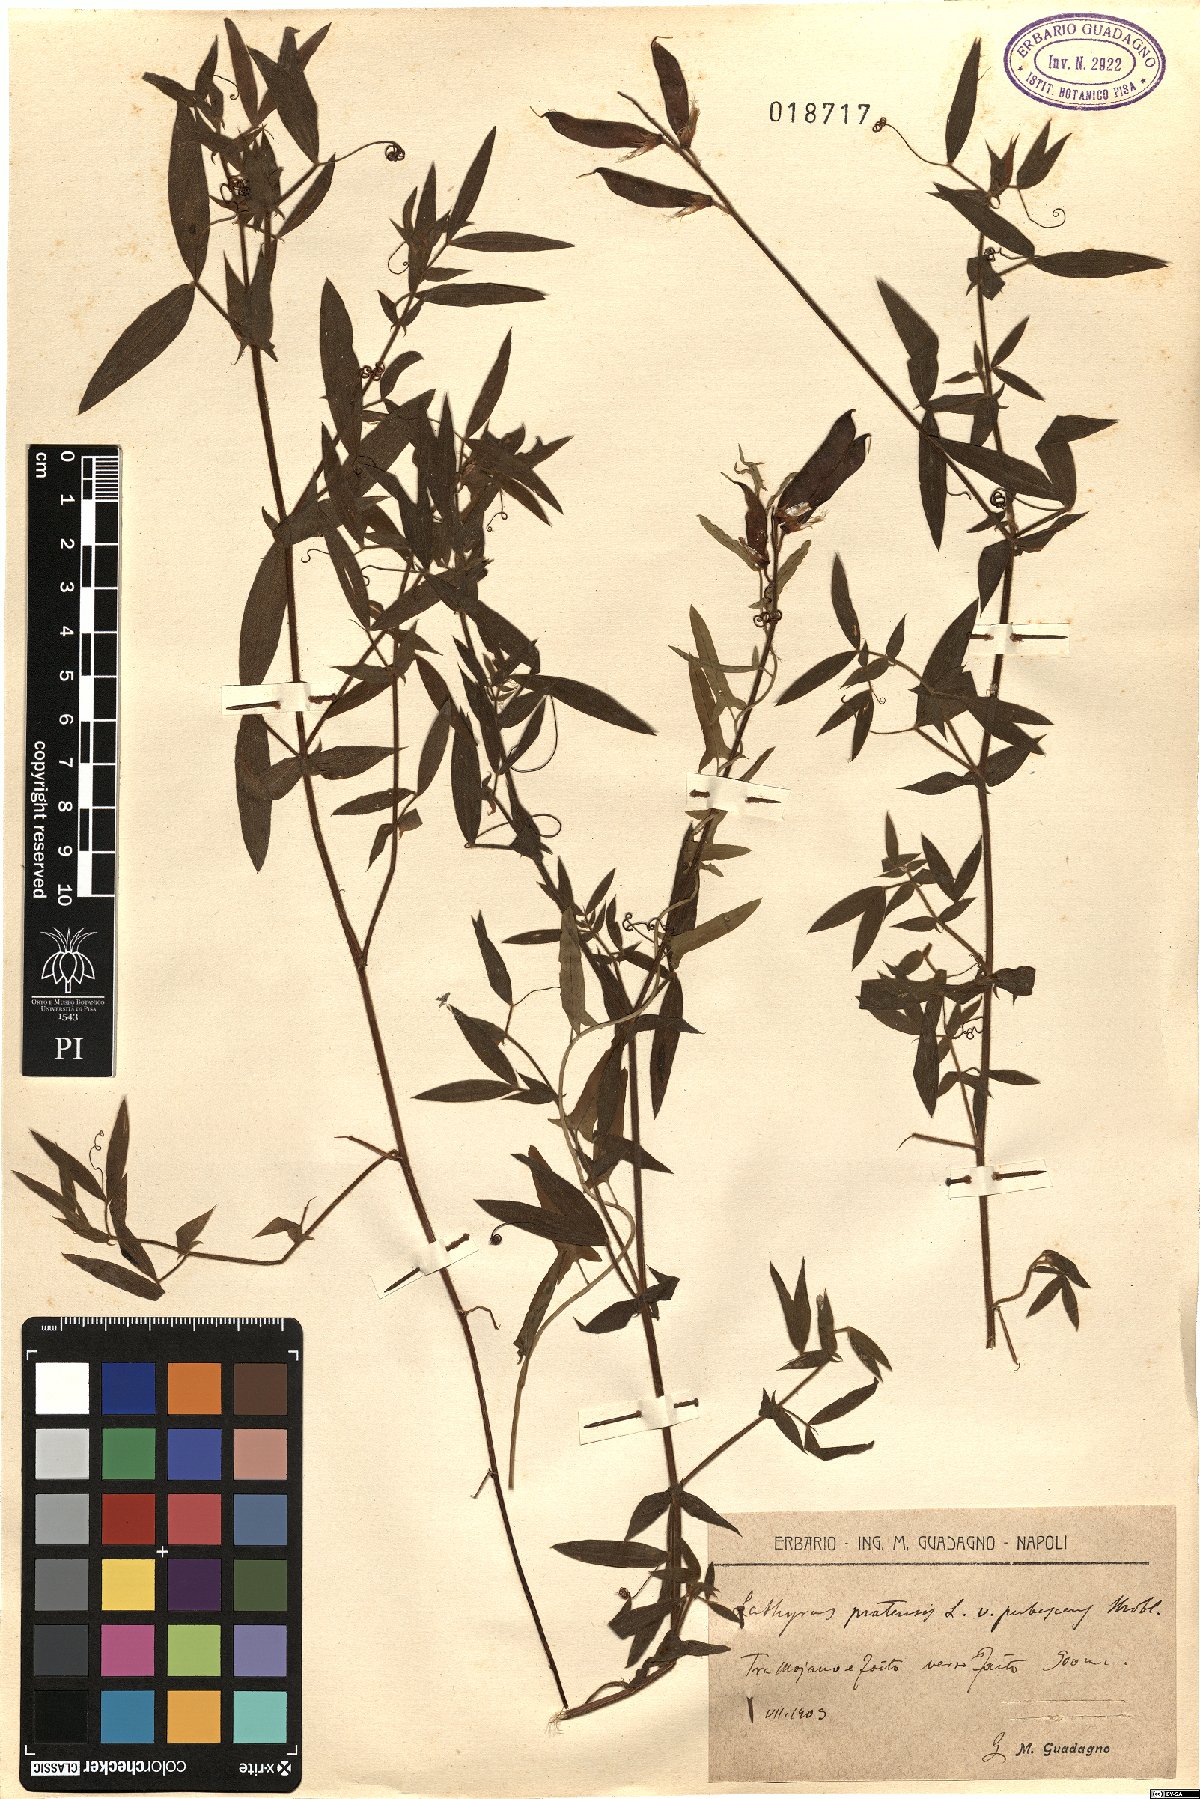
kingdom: Plantae
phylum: Tracheophyta
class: Magnoliopsida
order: Fabales
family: Fabaceae
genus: Lathyrus
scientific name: Lathyrus pratensis
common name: Meadow vetchling
